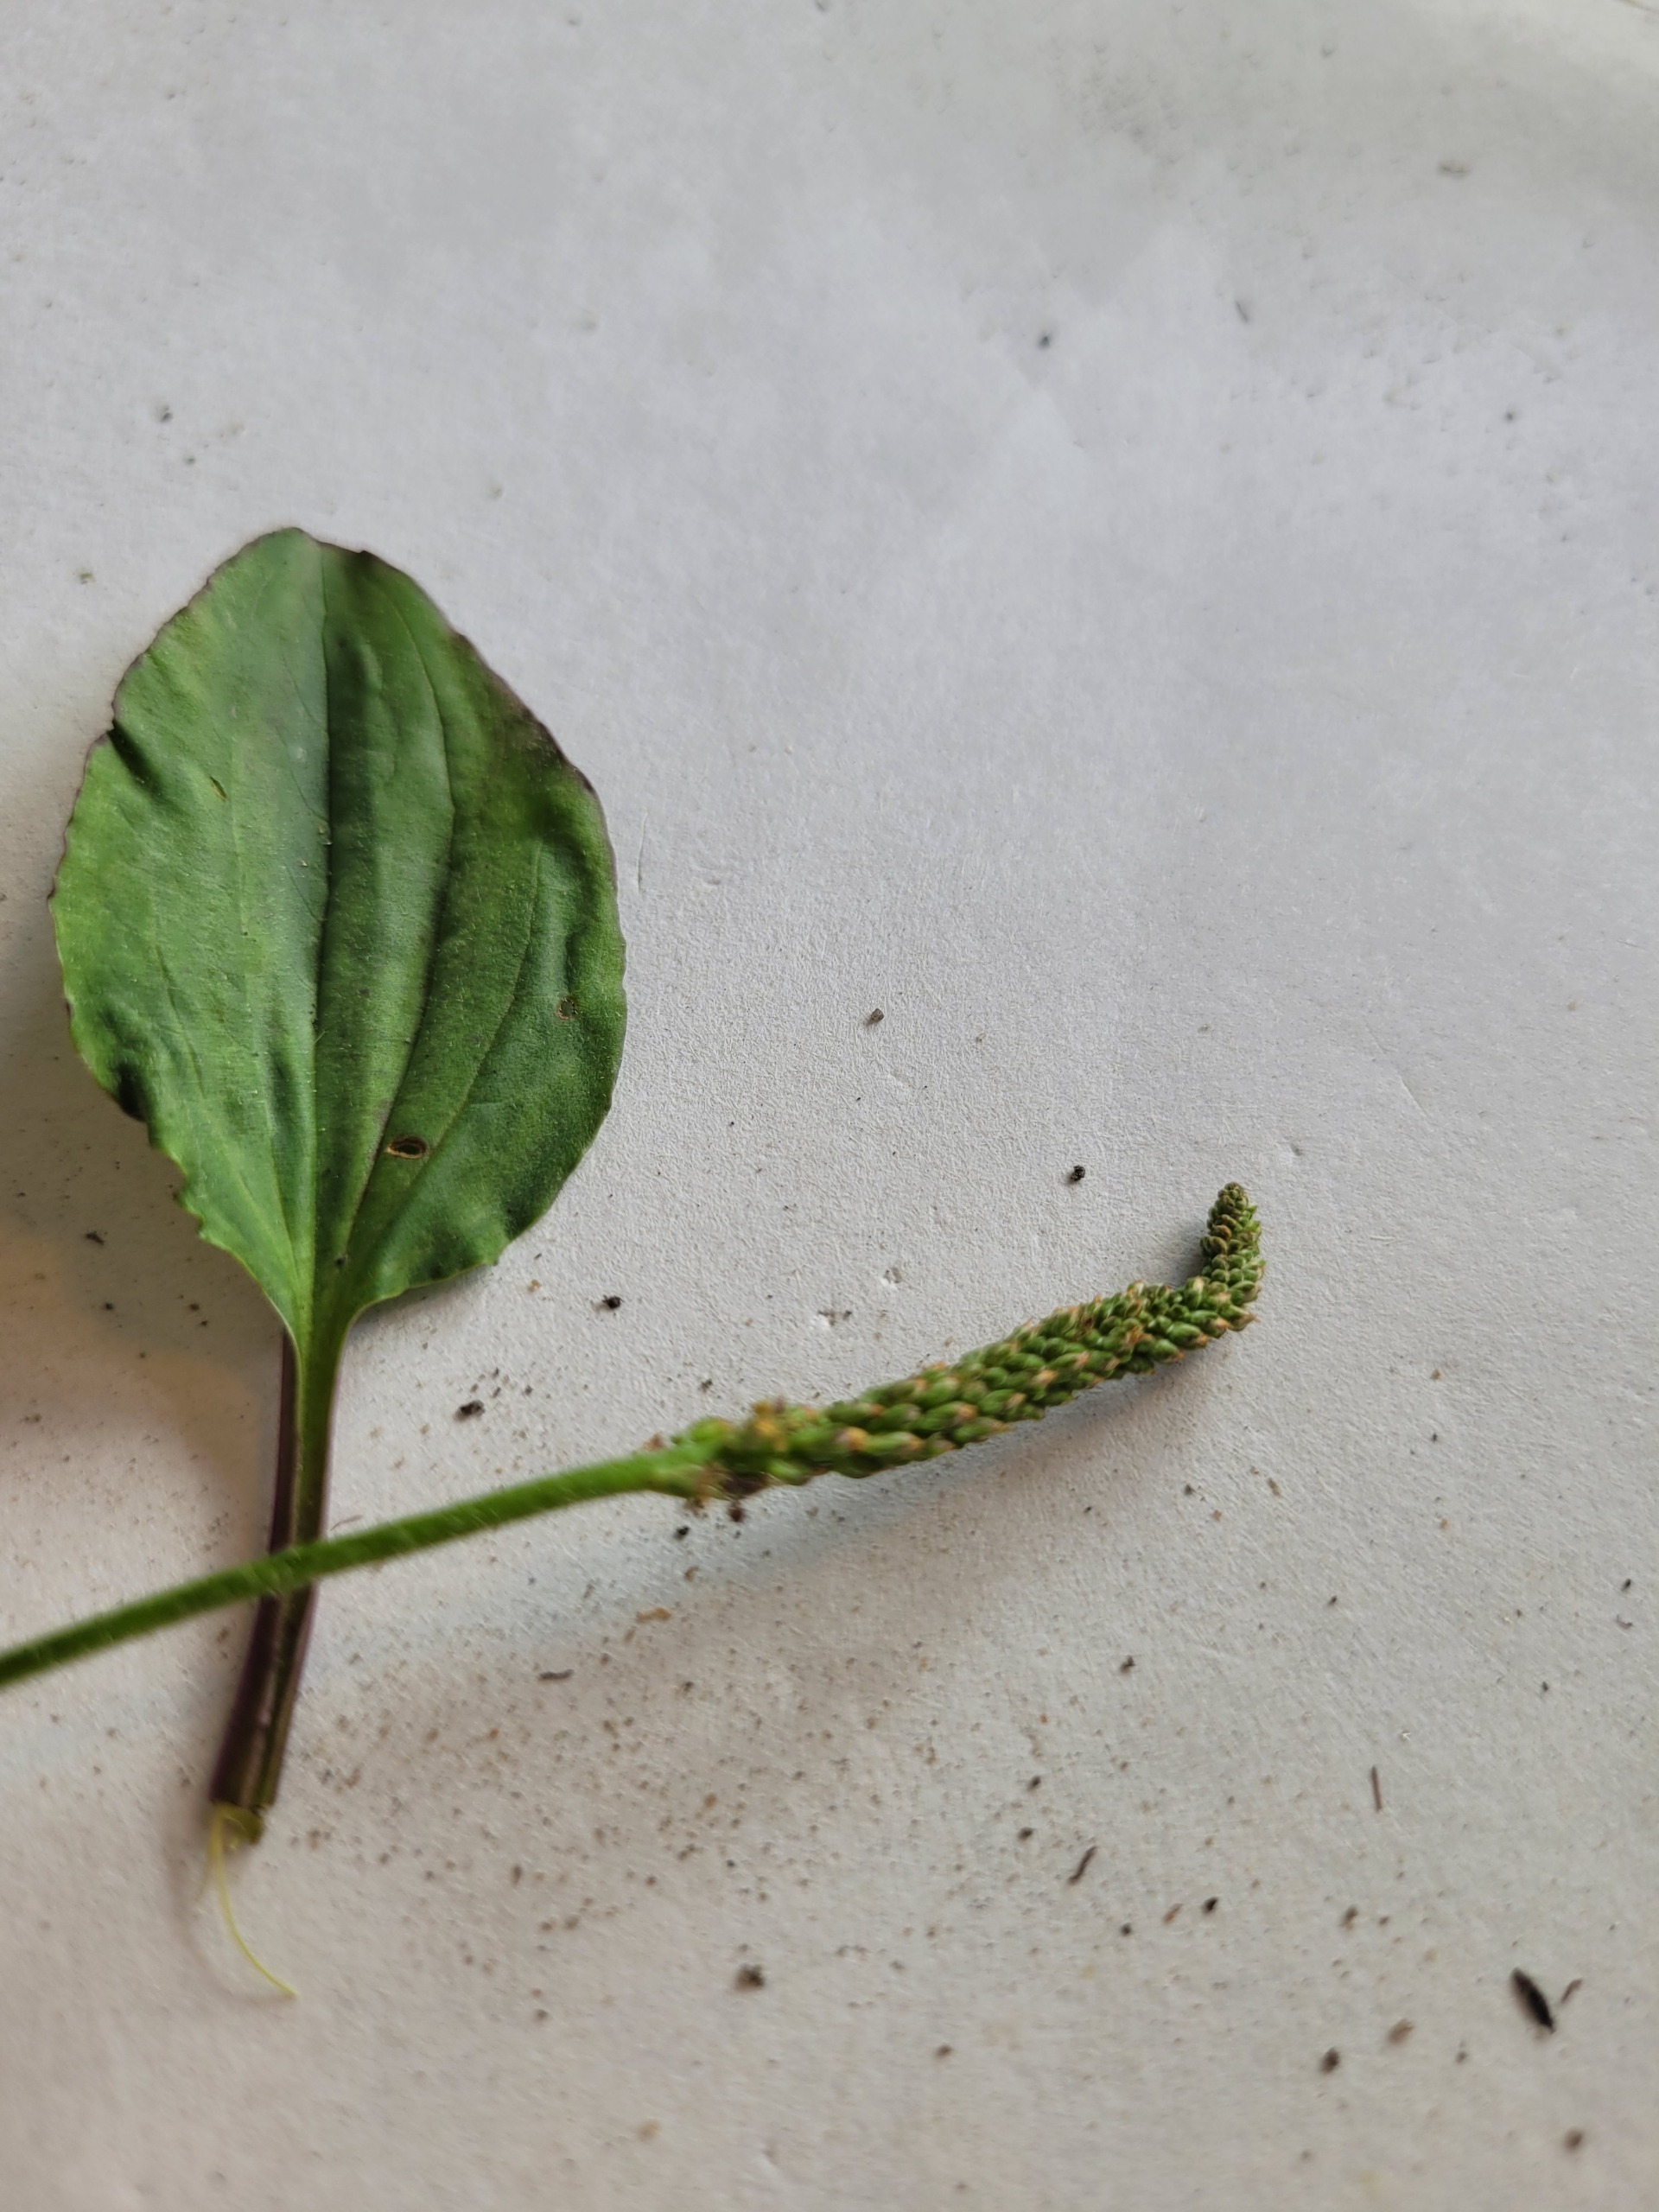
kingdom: Plantae
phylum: Tracheophyta
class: Magnoliopsida
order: Lamiales
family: Plantaginaceae
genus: Plantago
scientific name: Plantago major
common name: Glat vejbred
